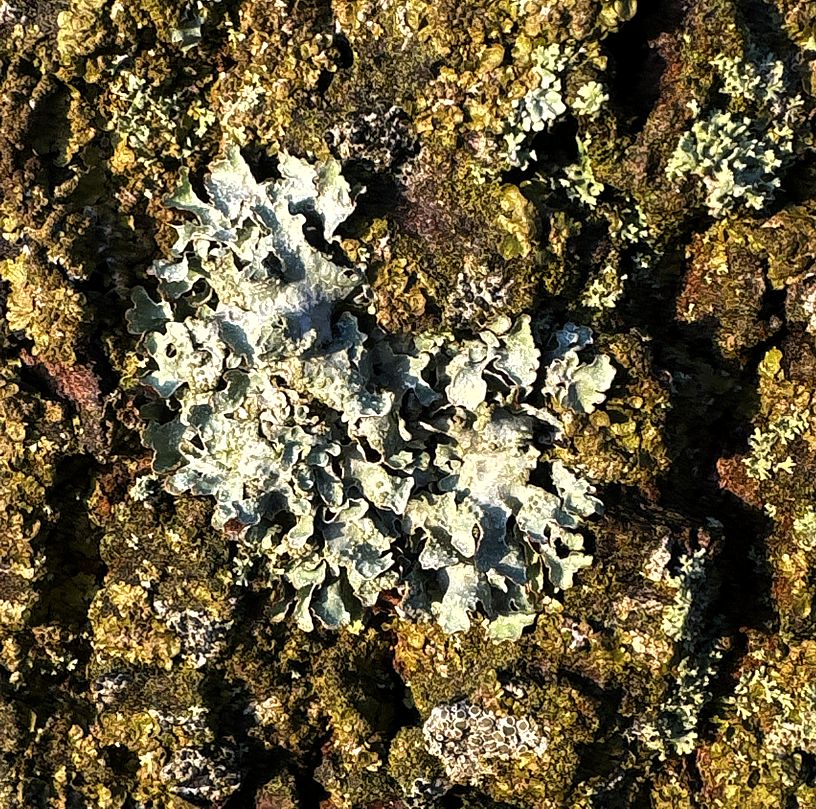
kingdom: Fungi
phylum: Ascomycota
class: Lecanoromycetes
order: Lecanorales
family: Parmeliaceae
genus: Parmelia
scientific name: Parmelia sulcata
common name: rynket skållav
